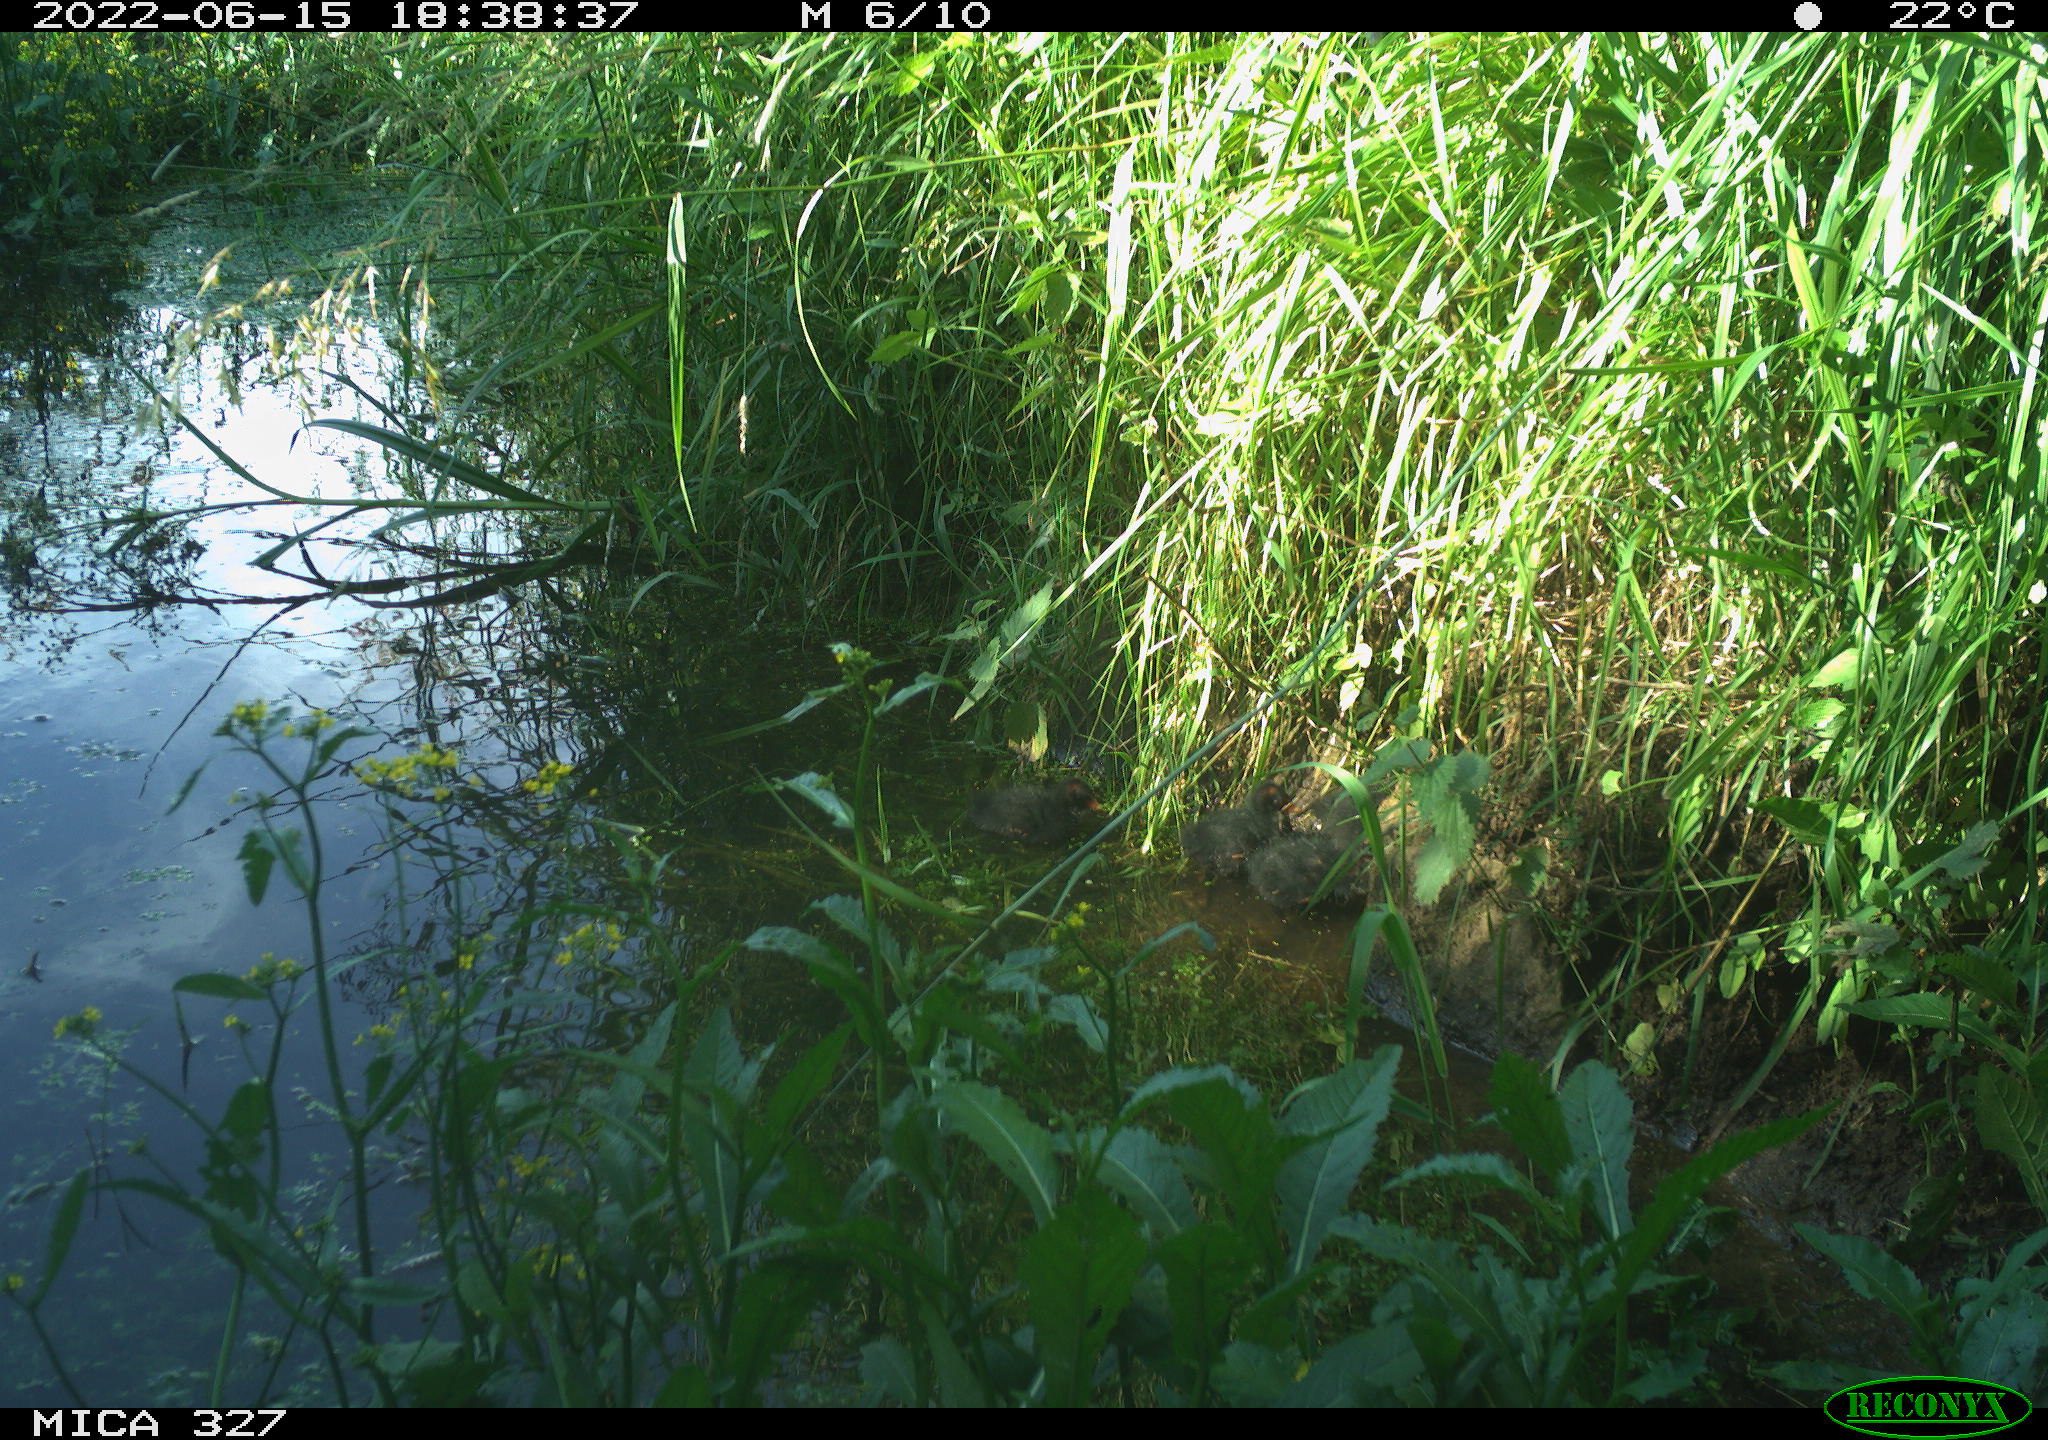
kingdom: Animalia
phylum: Chordata
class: Aves
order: Gruiformes
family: Rallidae
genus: Gallinula
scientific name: Gallinula chloropus
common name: Common moorhen
